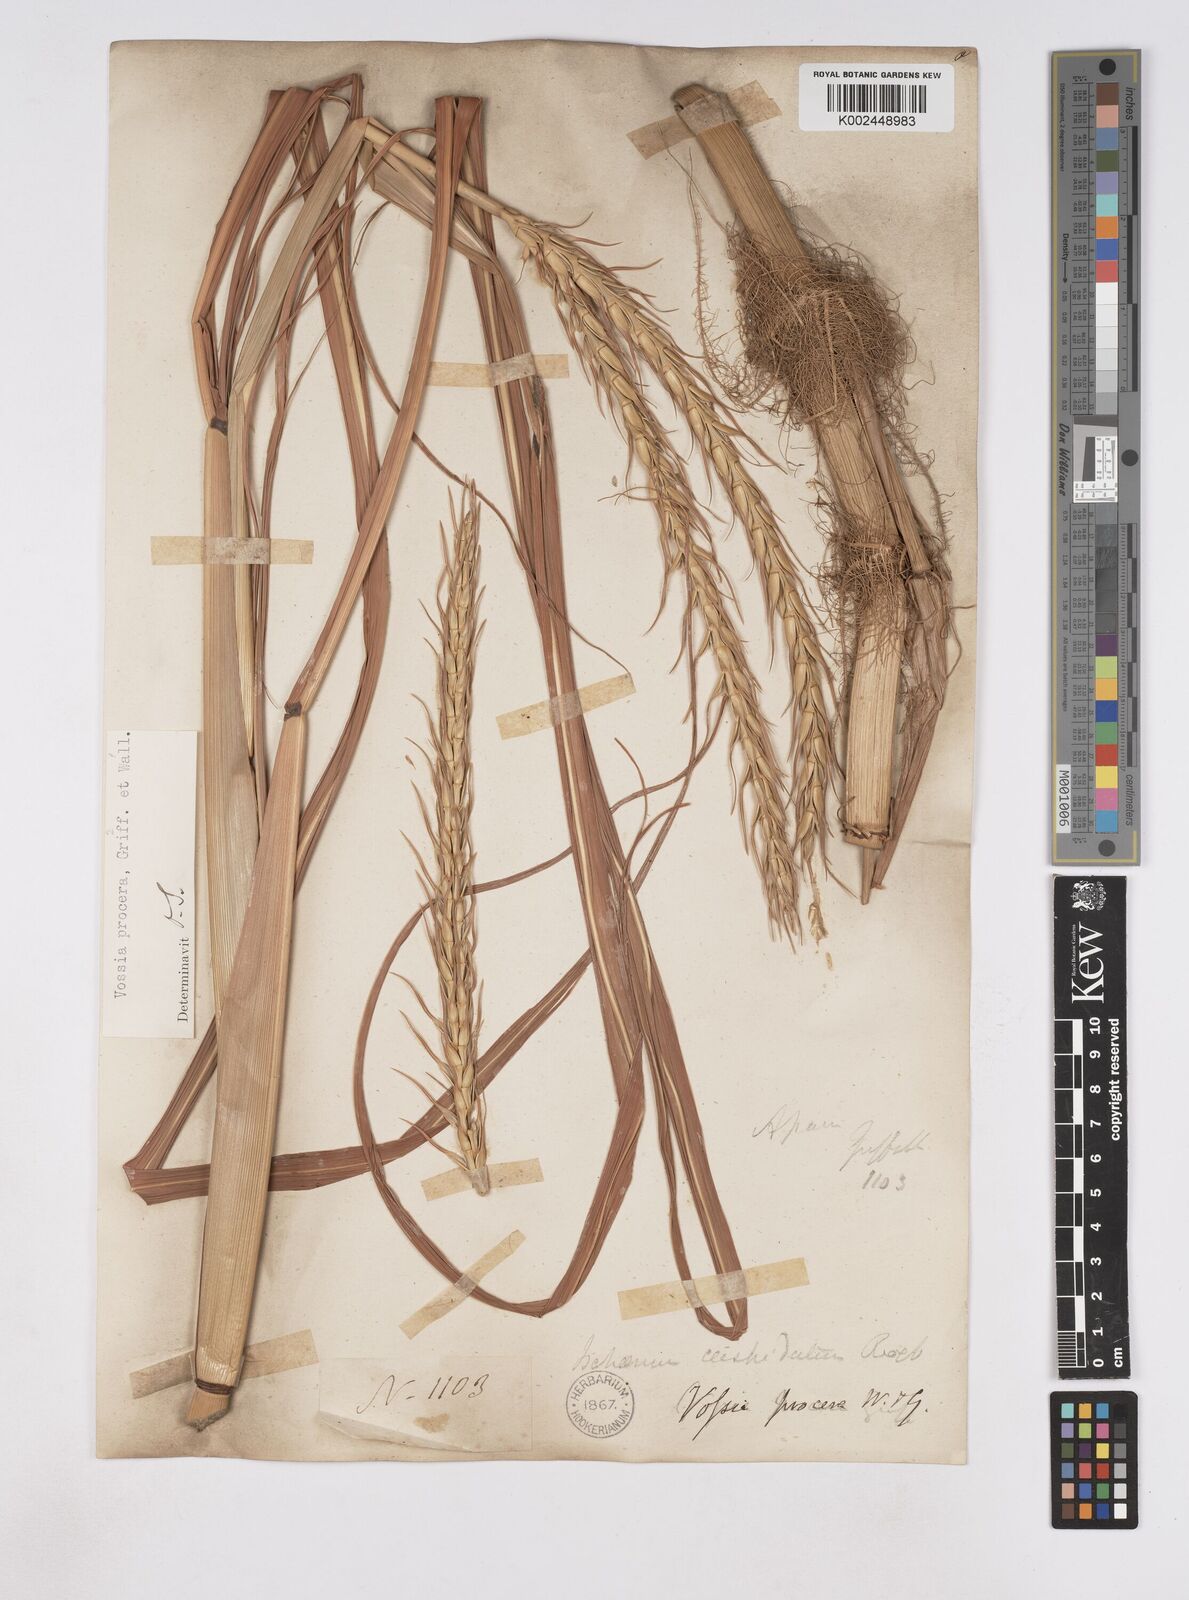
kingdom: Plantae
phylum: Tracheophyta
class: Liliopsida
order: Poales
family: Poaceae
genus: Vossia
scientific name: Vossia cuspidata
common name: Hippo grass
